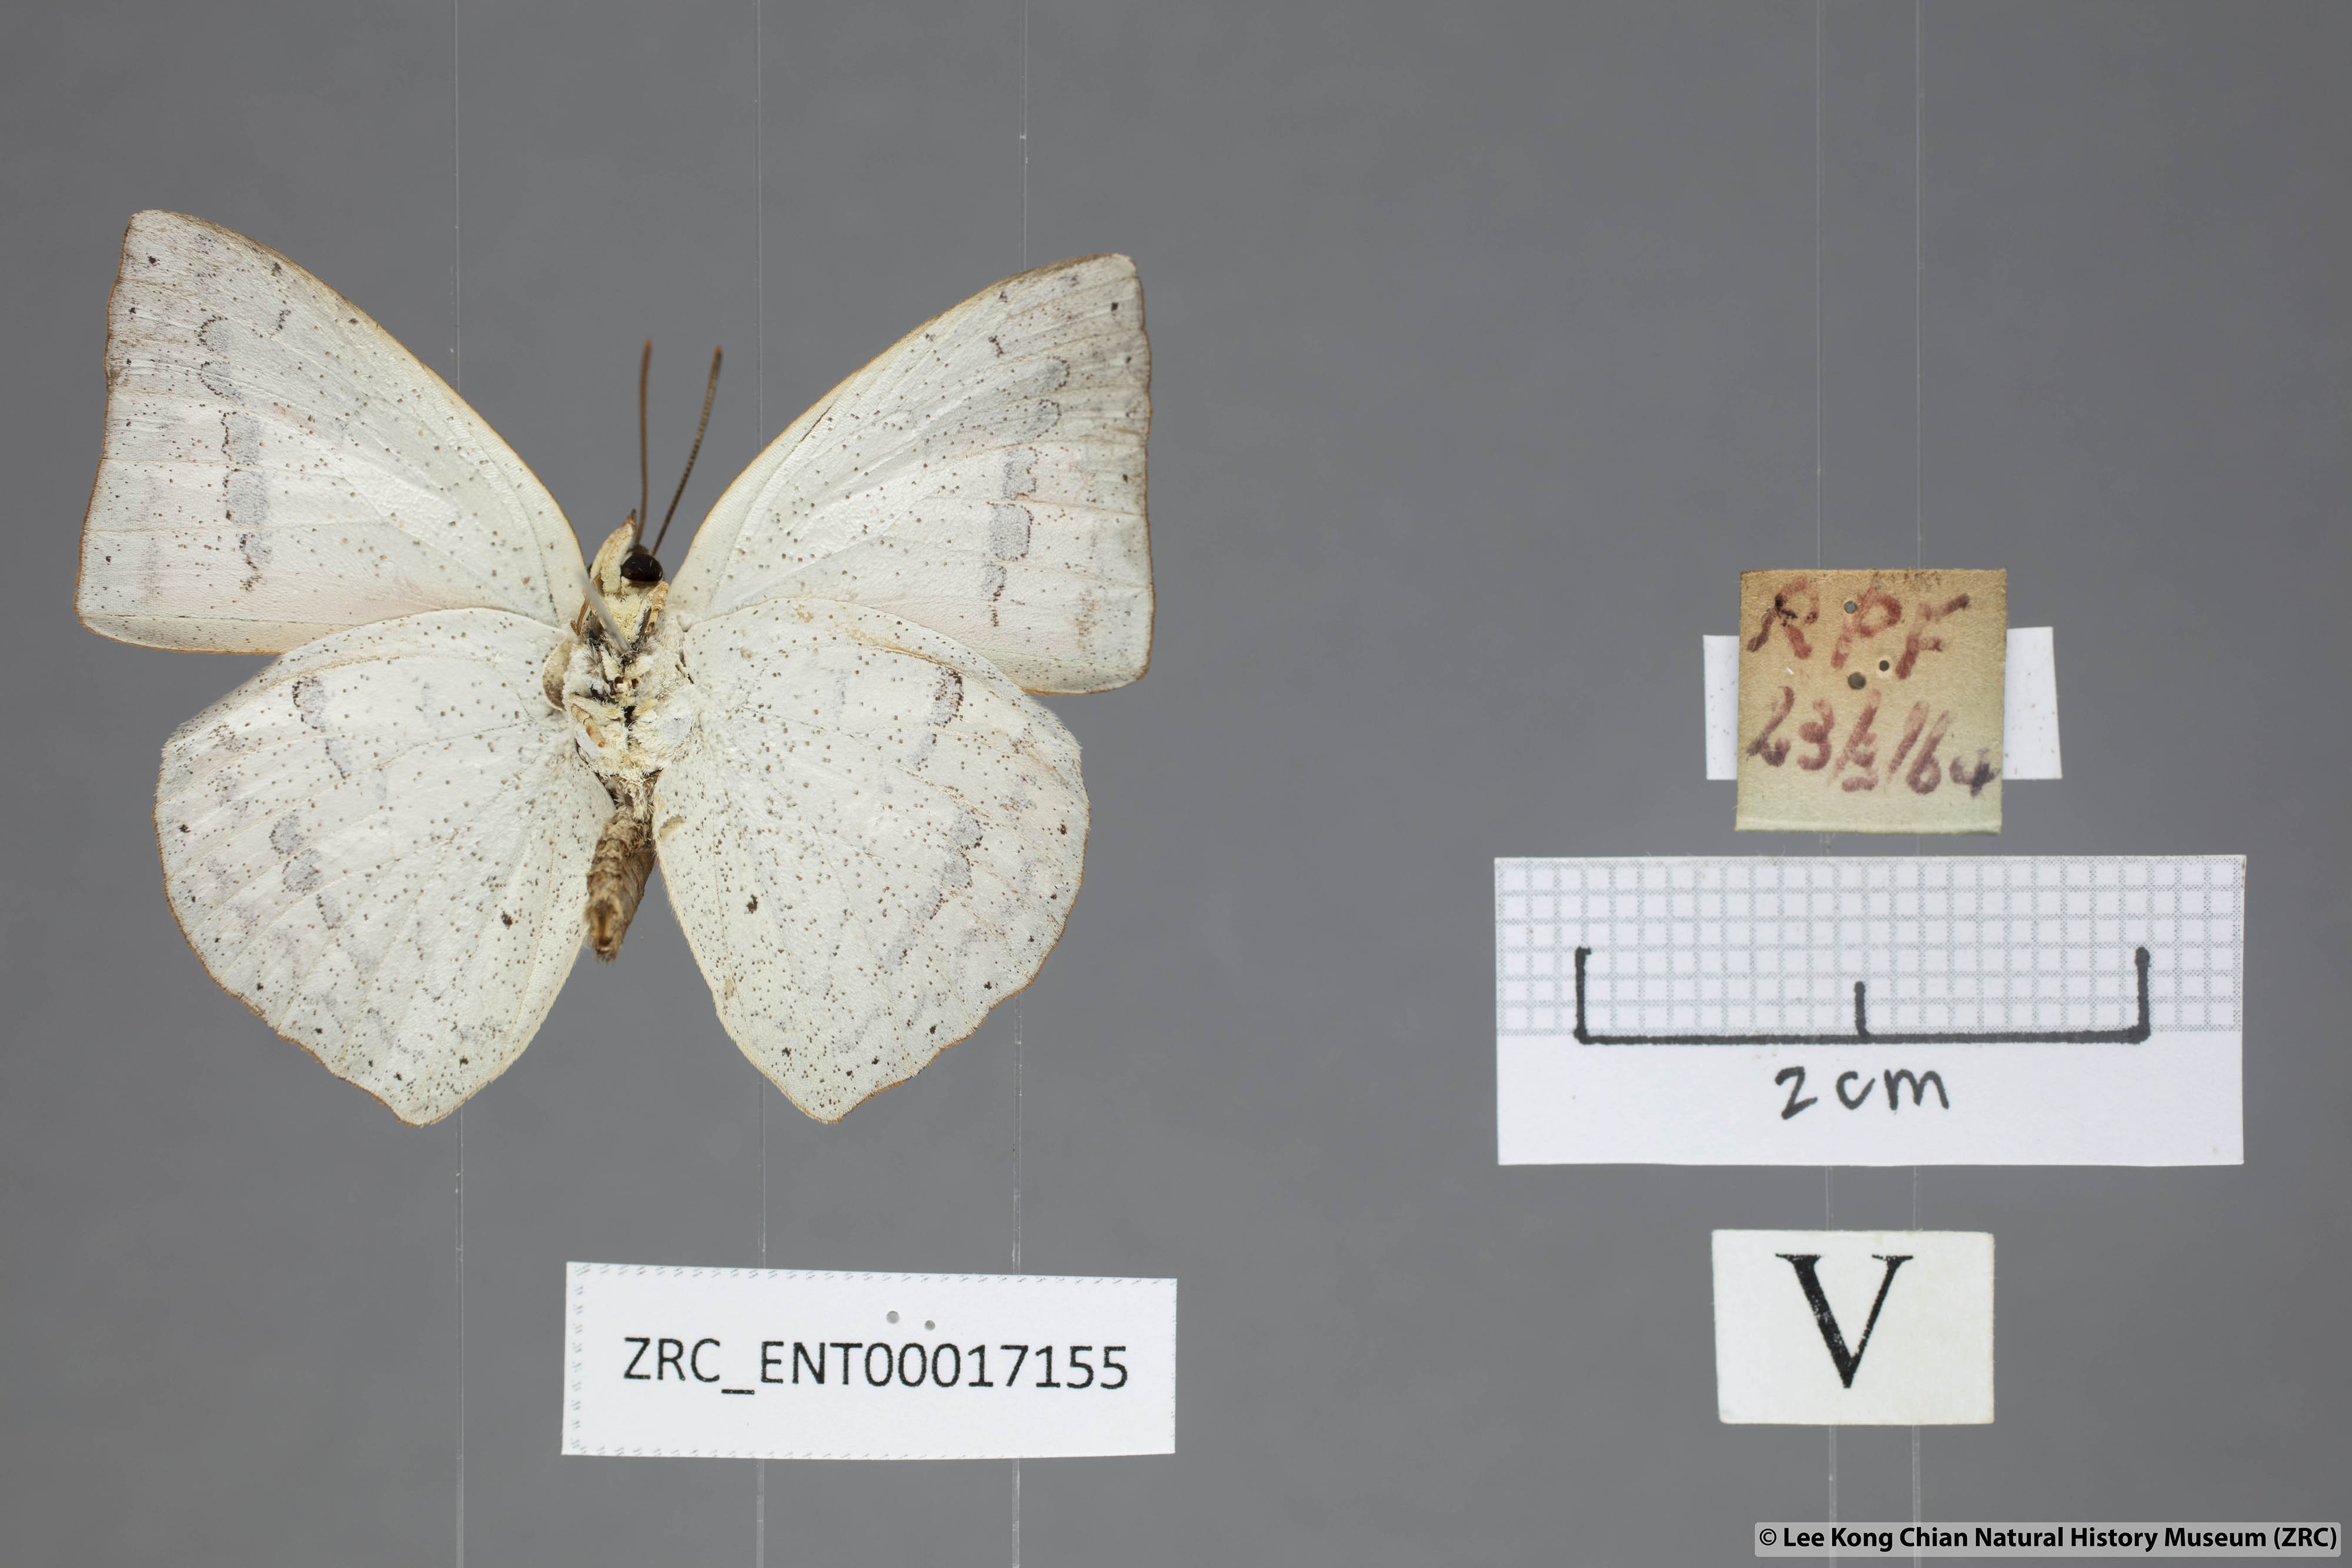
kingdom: Animalia
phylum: Arthropoda
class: Insecta
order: Lepidoptera
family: Lycaenidae
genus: Curetis
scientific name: Curetis santana
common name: Malayan sunbeam
